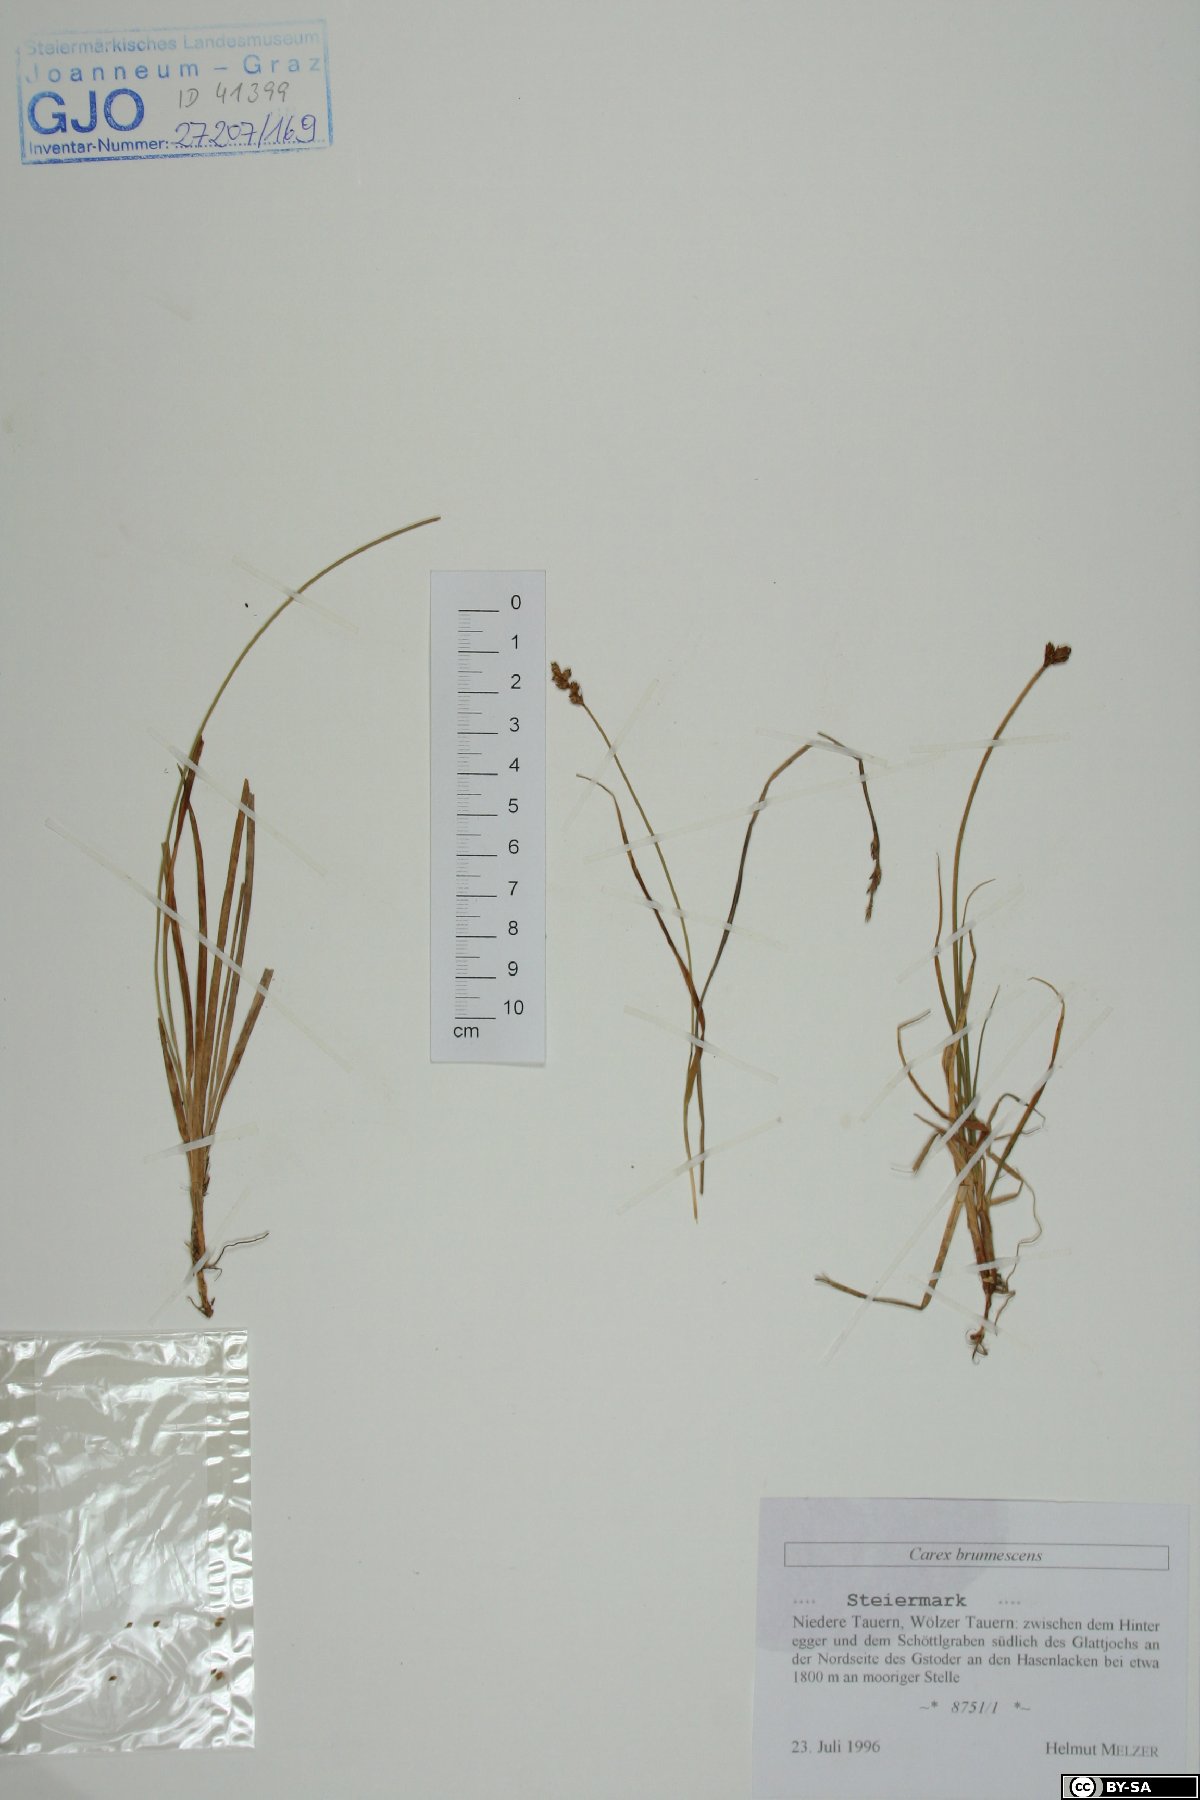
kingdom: Plantae
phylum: Tracheophyta
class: Liliopsida
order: Poales
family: Cyperaceae
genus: Carex
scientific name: Carex brunnescens
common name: Brown sedge
